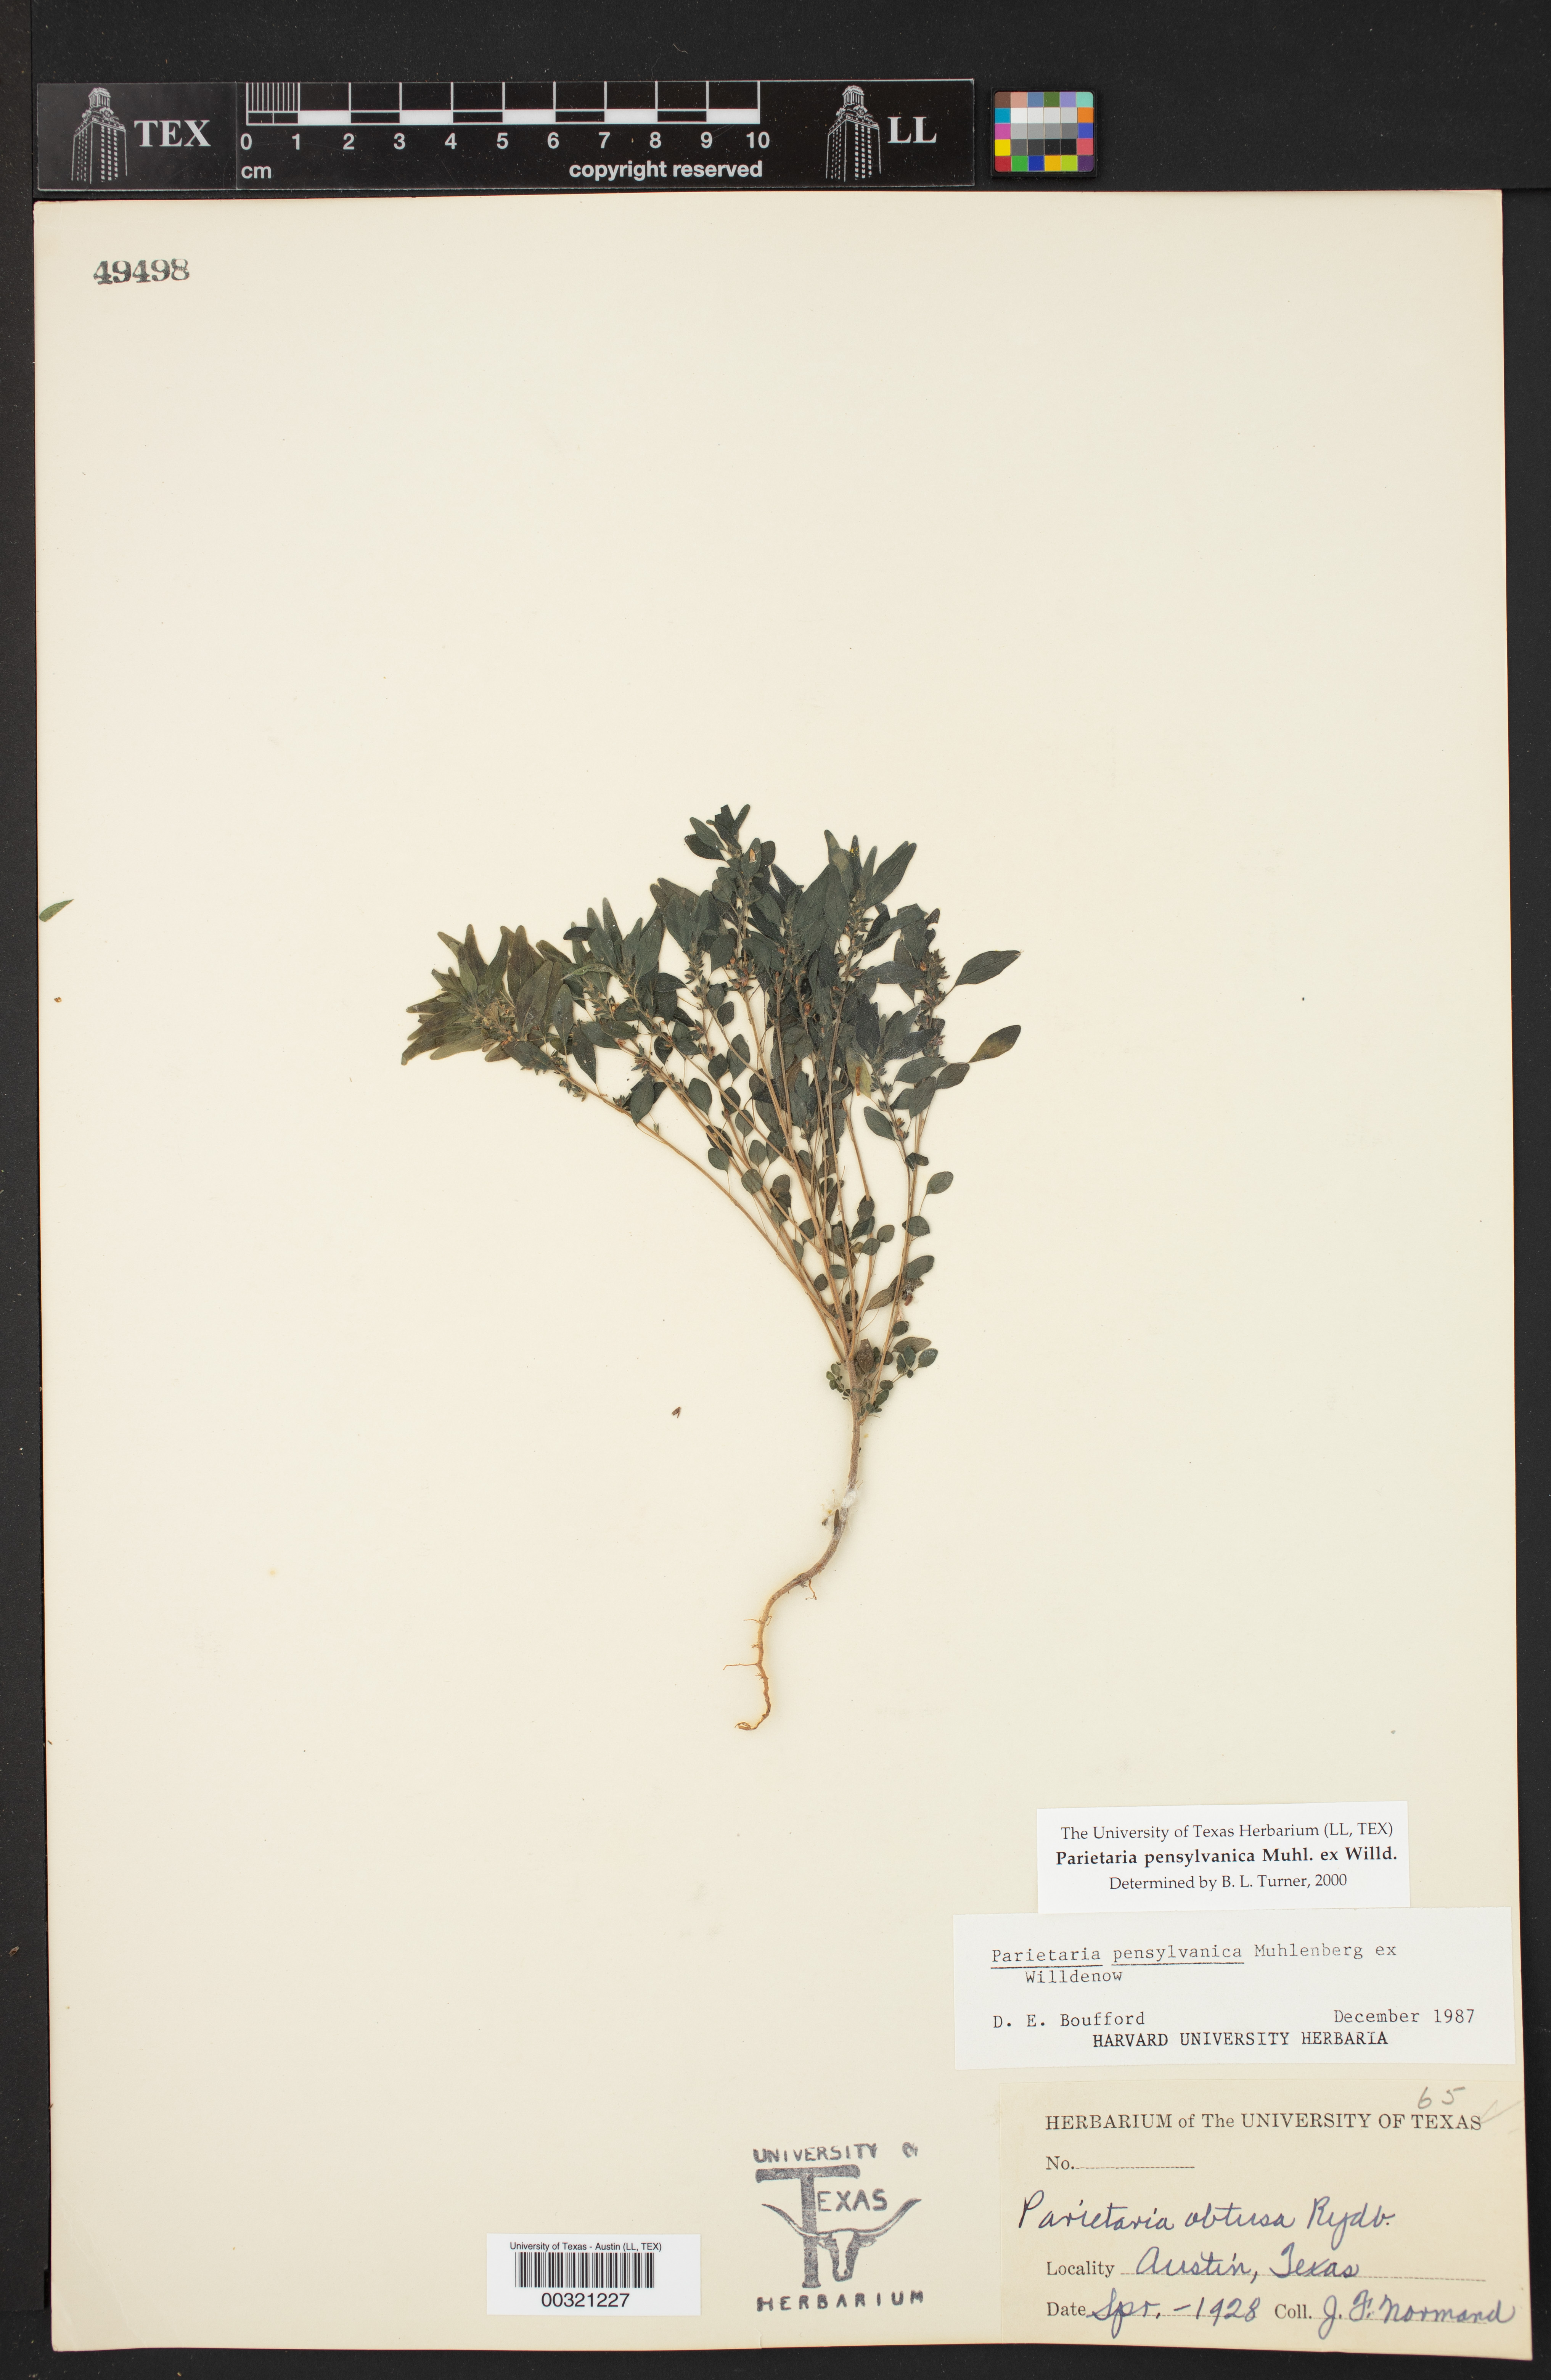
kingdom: Plantae
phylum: Tracheophyta
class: Magnoliopsida
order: Rosales
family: Urticaceae
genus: Parietaria
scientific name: Parietaria pensylvanica
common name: Pennsylvania pellitory
